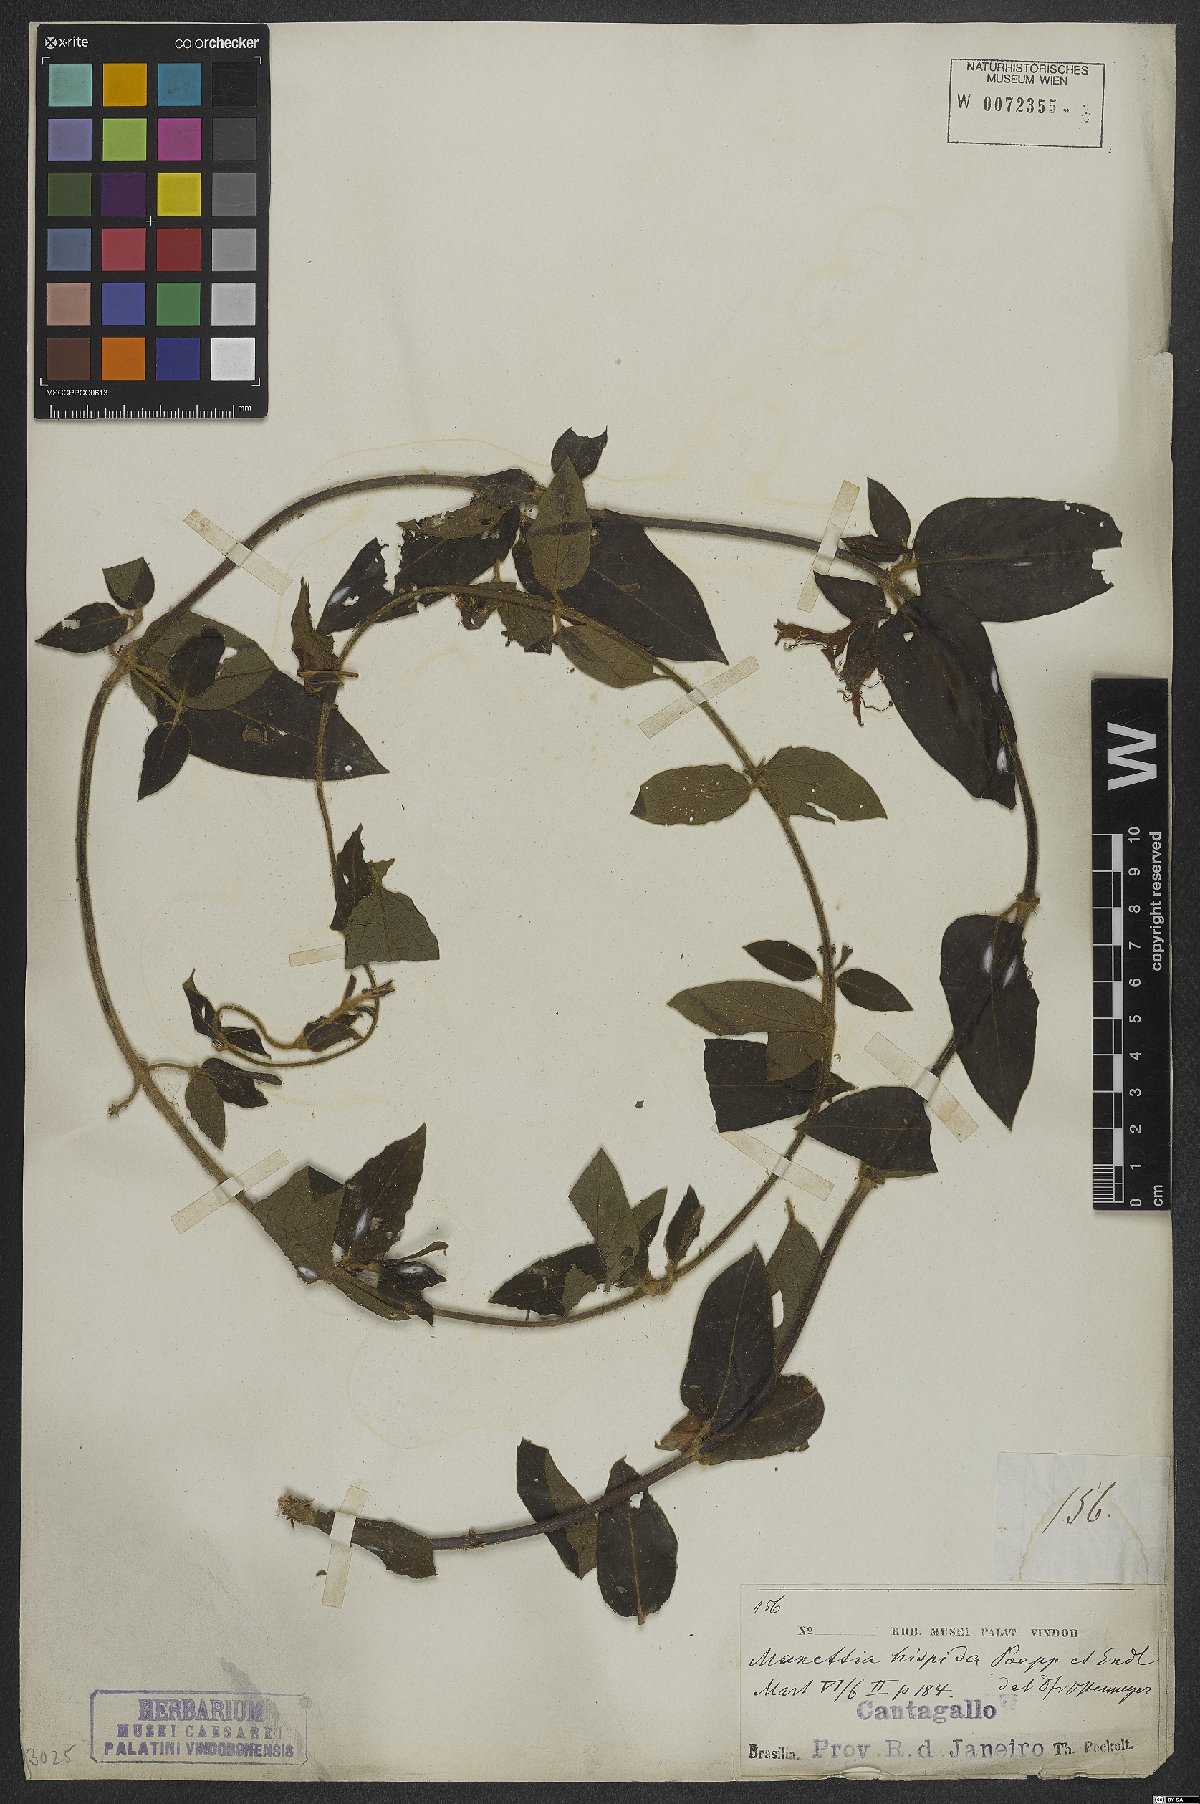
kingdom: Plantae
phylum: Tracheophyta
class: Magnoliopsida
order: Gentianales
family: Rubiaceae
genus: Manettia
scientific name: Manettia hispida
